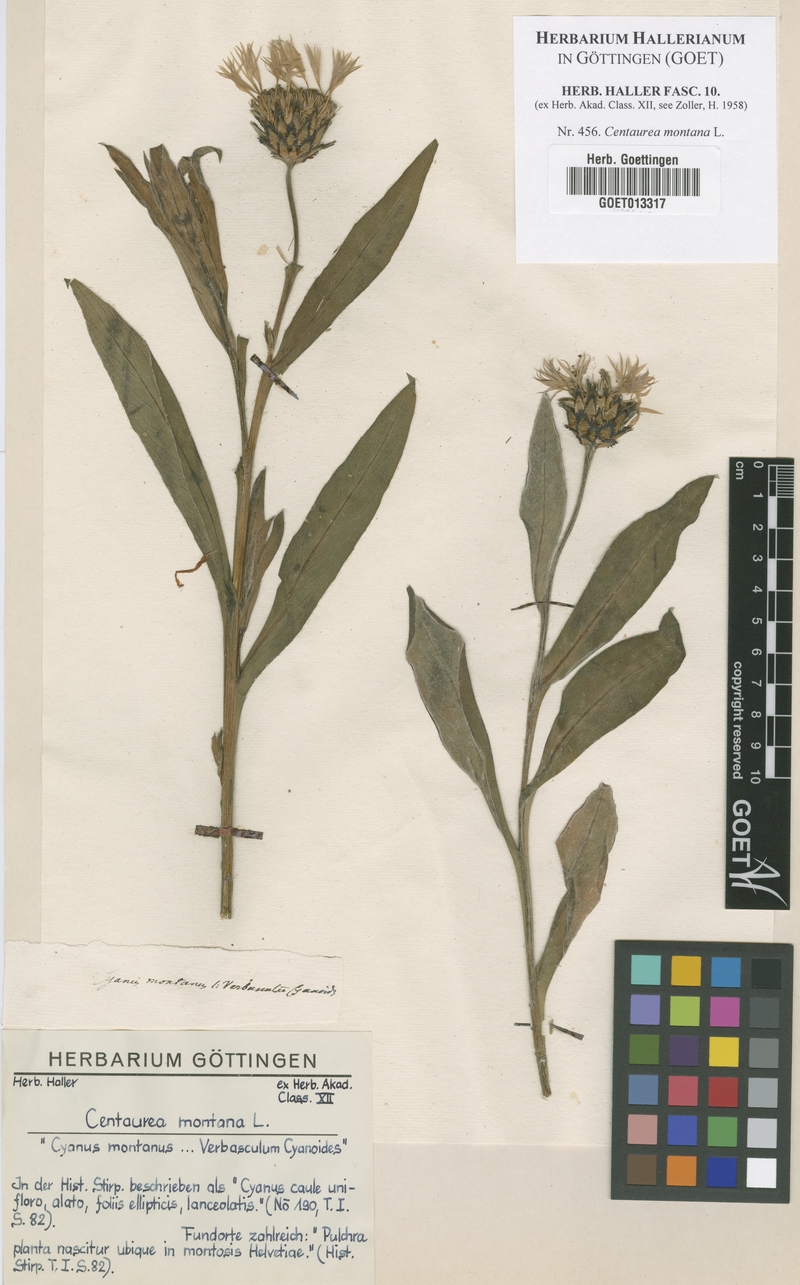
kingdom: Plantae
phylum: Tracheophyta
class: Magnoliopsida
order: Asterales
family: Asteraceae
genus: Centaurea
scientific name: Centaurea montana
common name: Perennial cornflower
